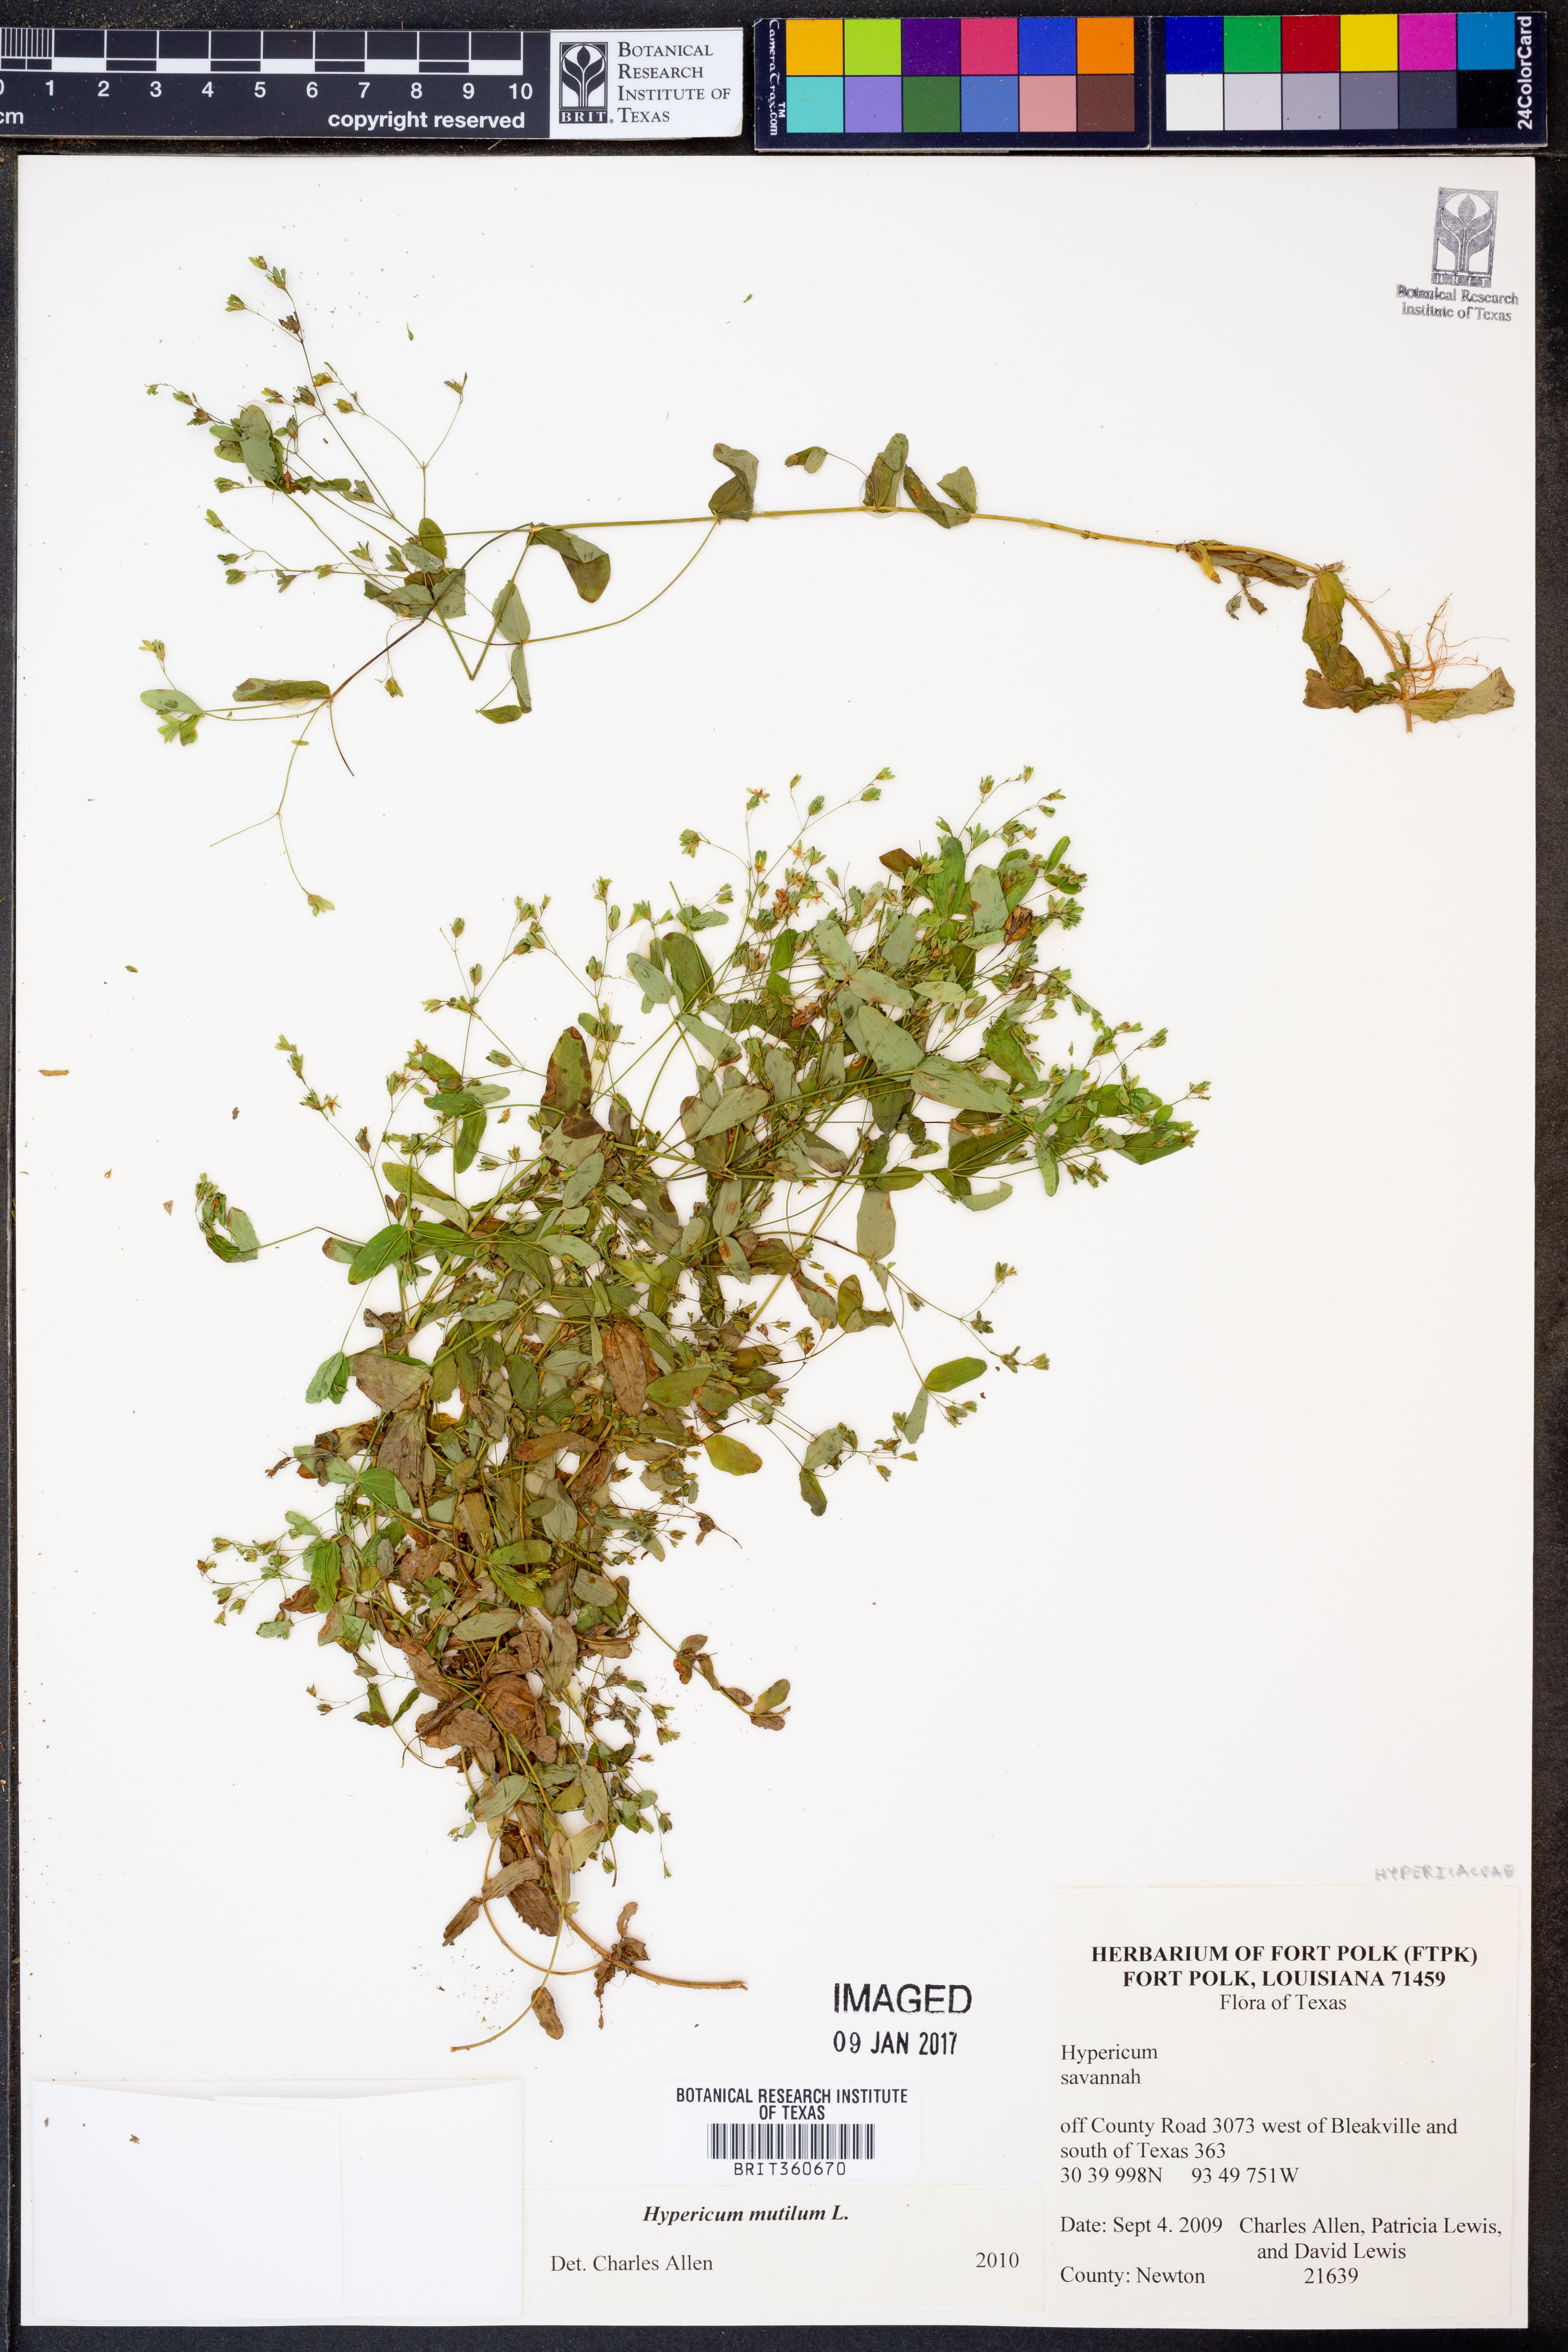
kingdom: Plantae
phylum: Tracheophyta
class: Magnoliopsida
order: Malpighiales
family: Hypericaceae
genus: Hypericum
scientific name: Hypericum mutilum
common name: Dwarf st. john's-wort
